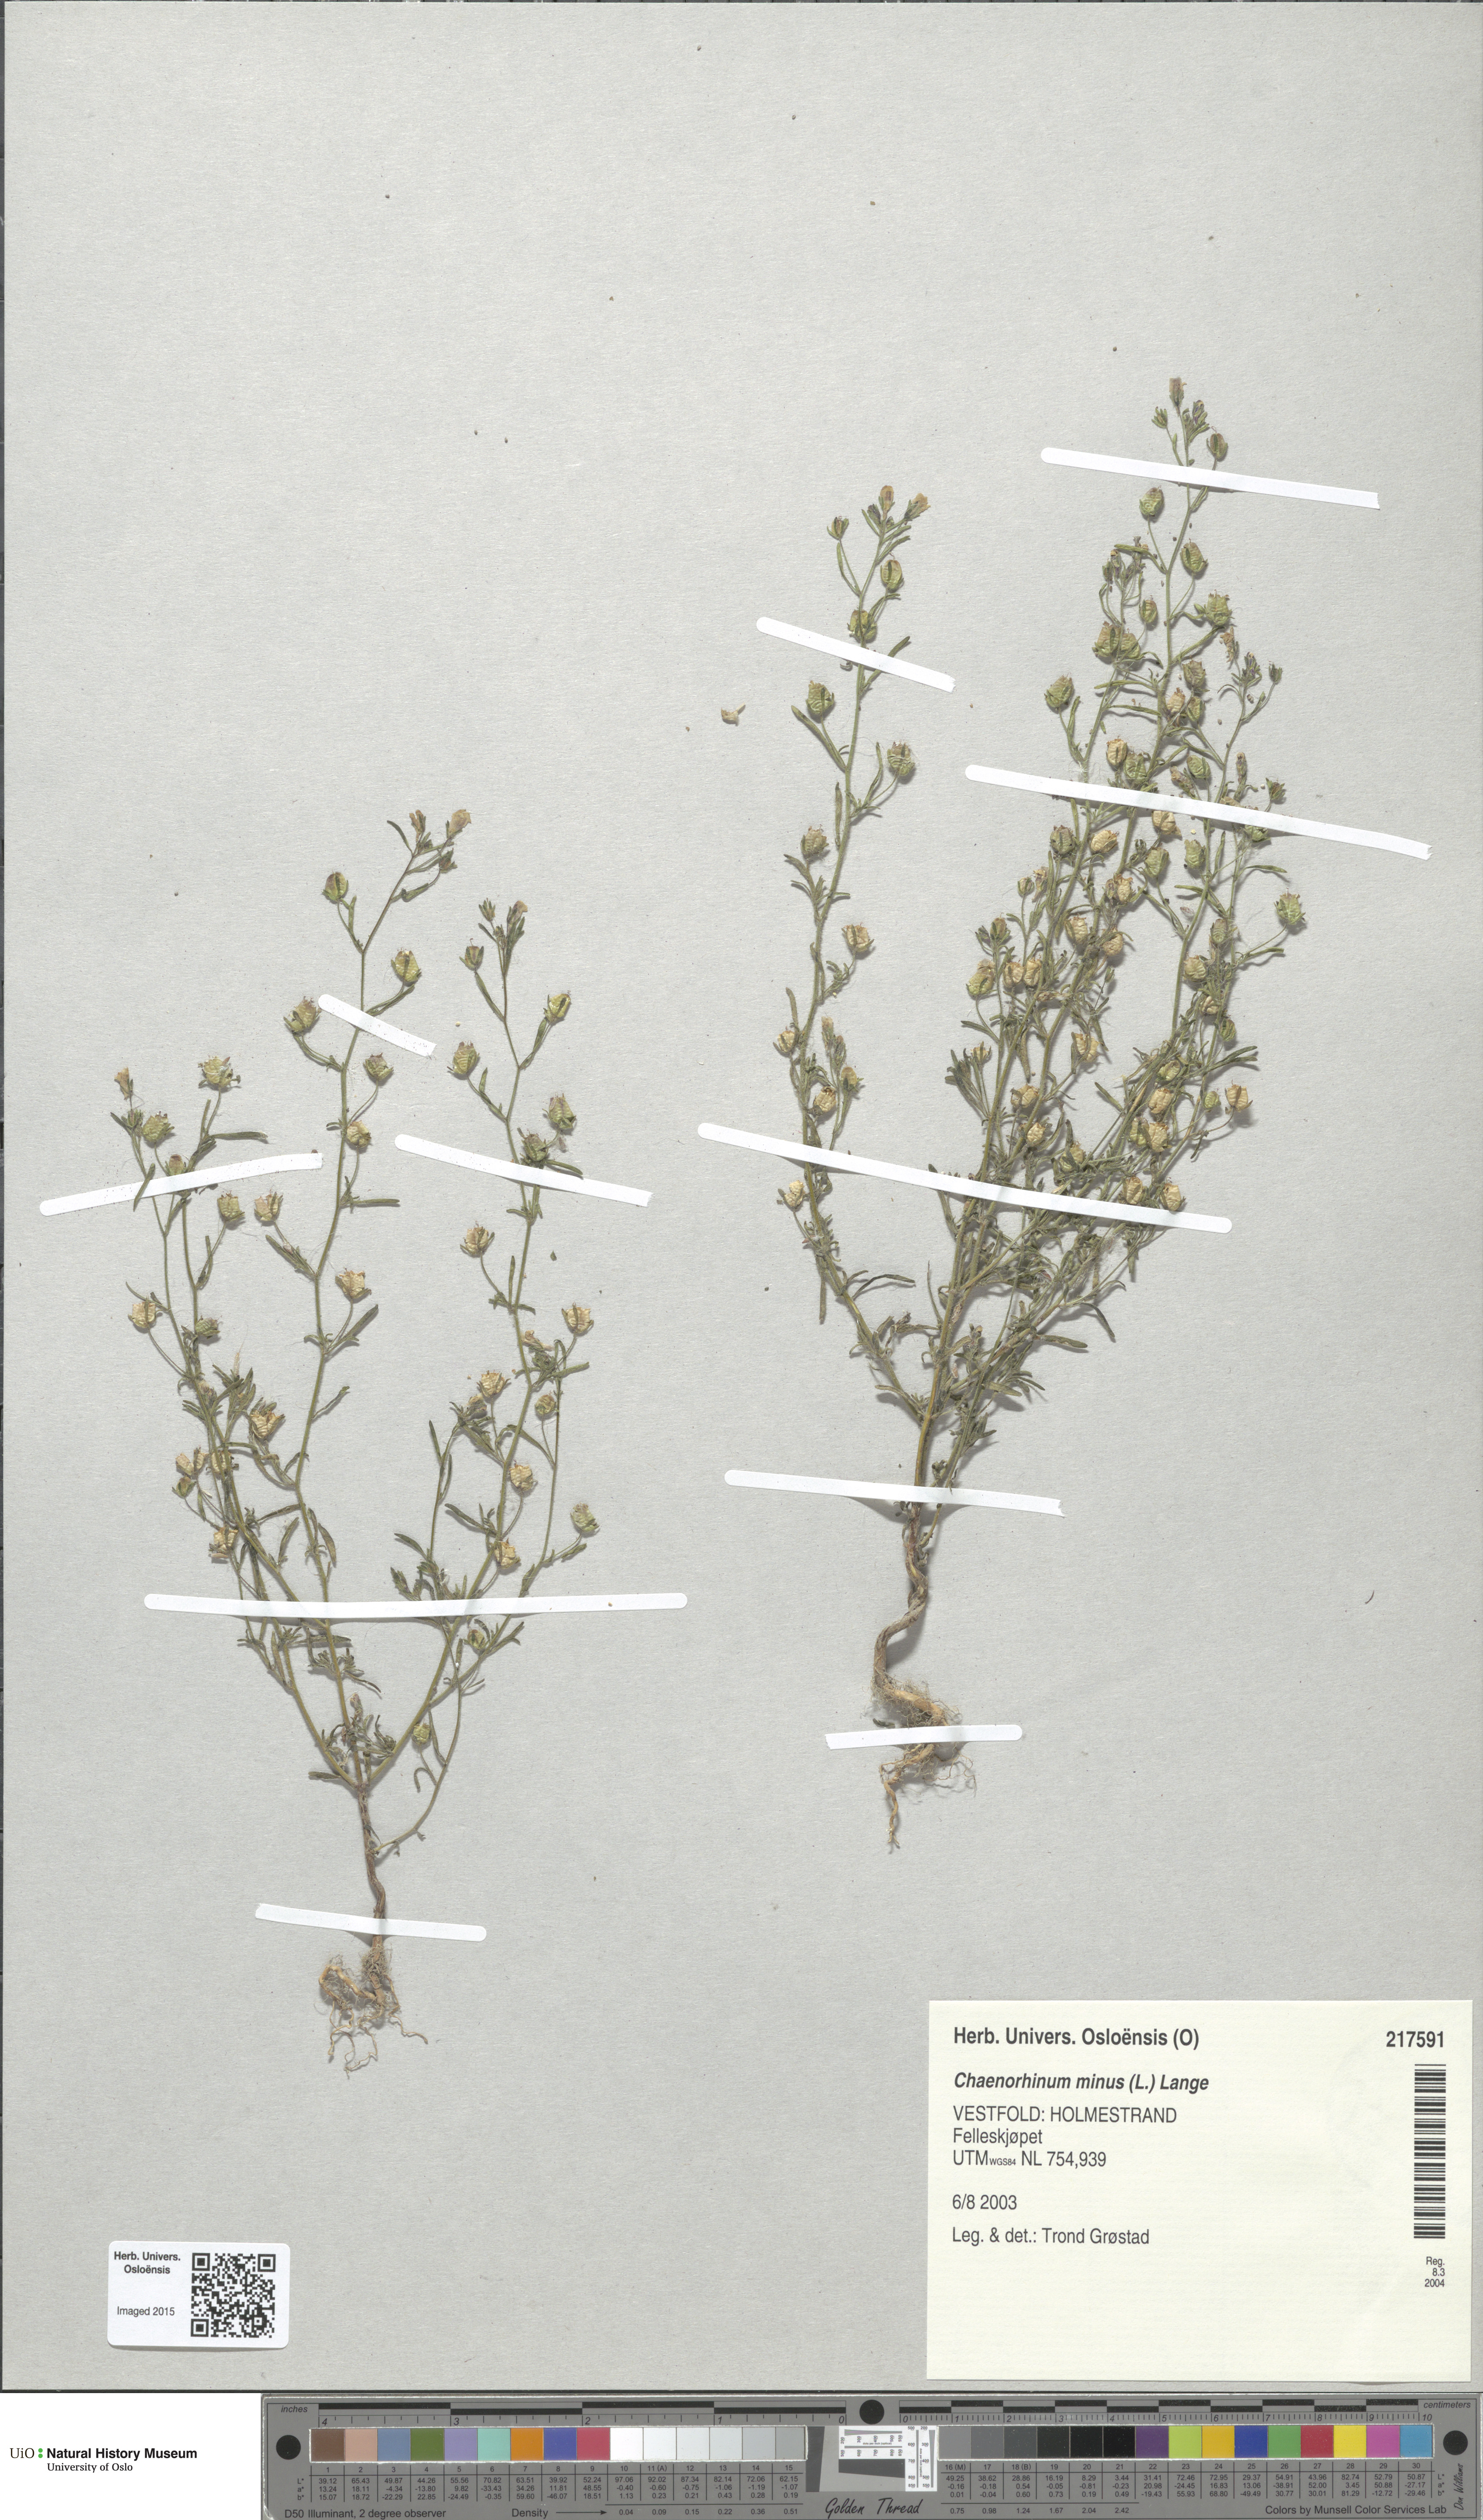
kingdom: Plantae
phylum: Tracheophyta
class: Magnoliopsida
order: Lamiales
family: Plantaginaceae
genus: Chaenorhinum
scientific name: Chaenorhinum minus
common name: Dwarf snapdragon
